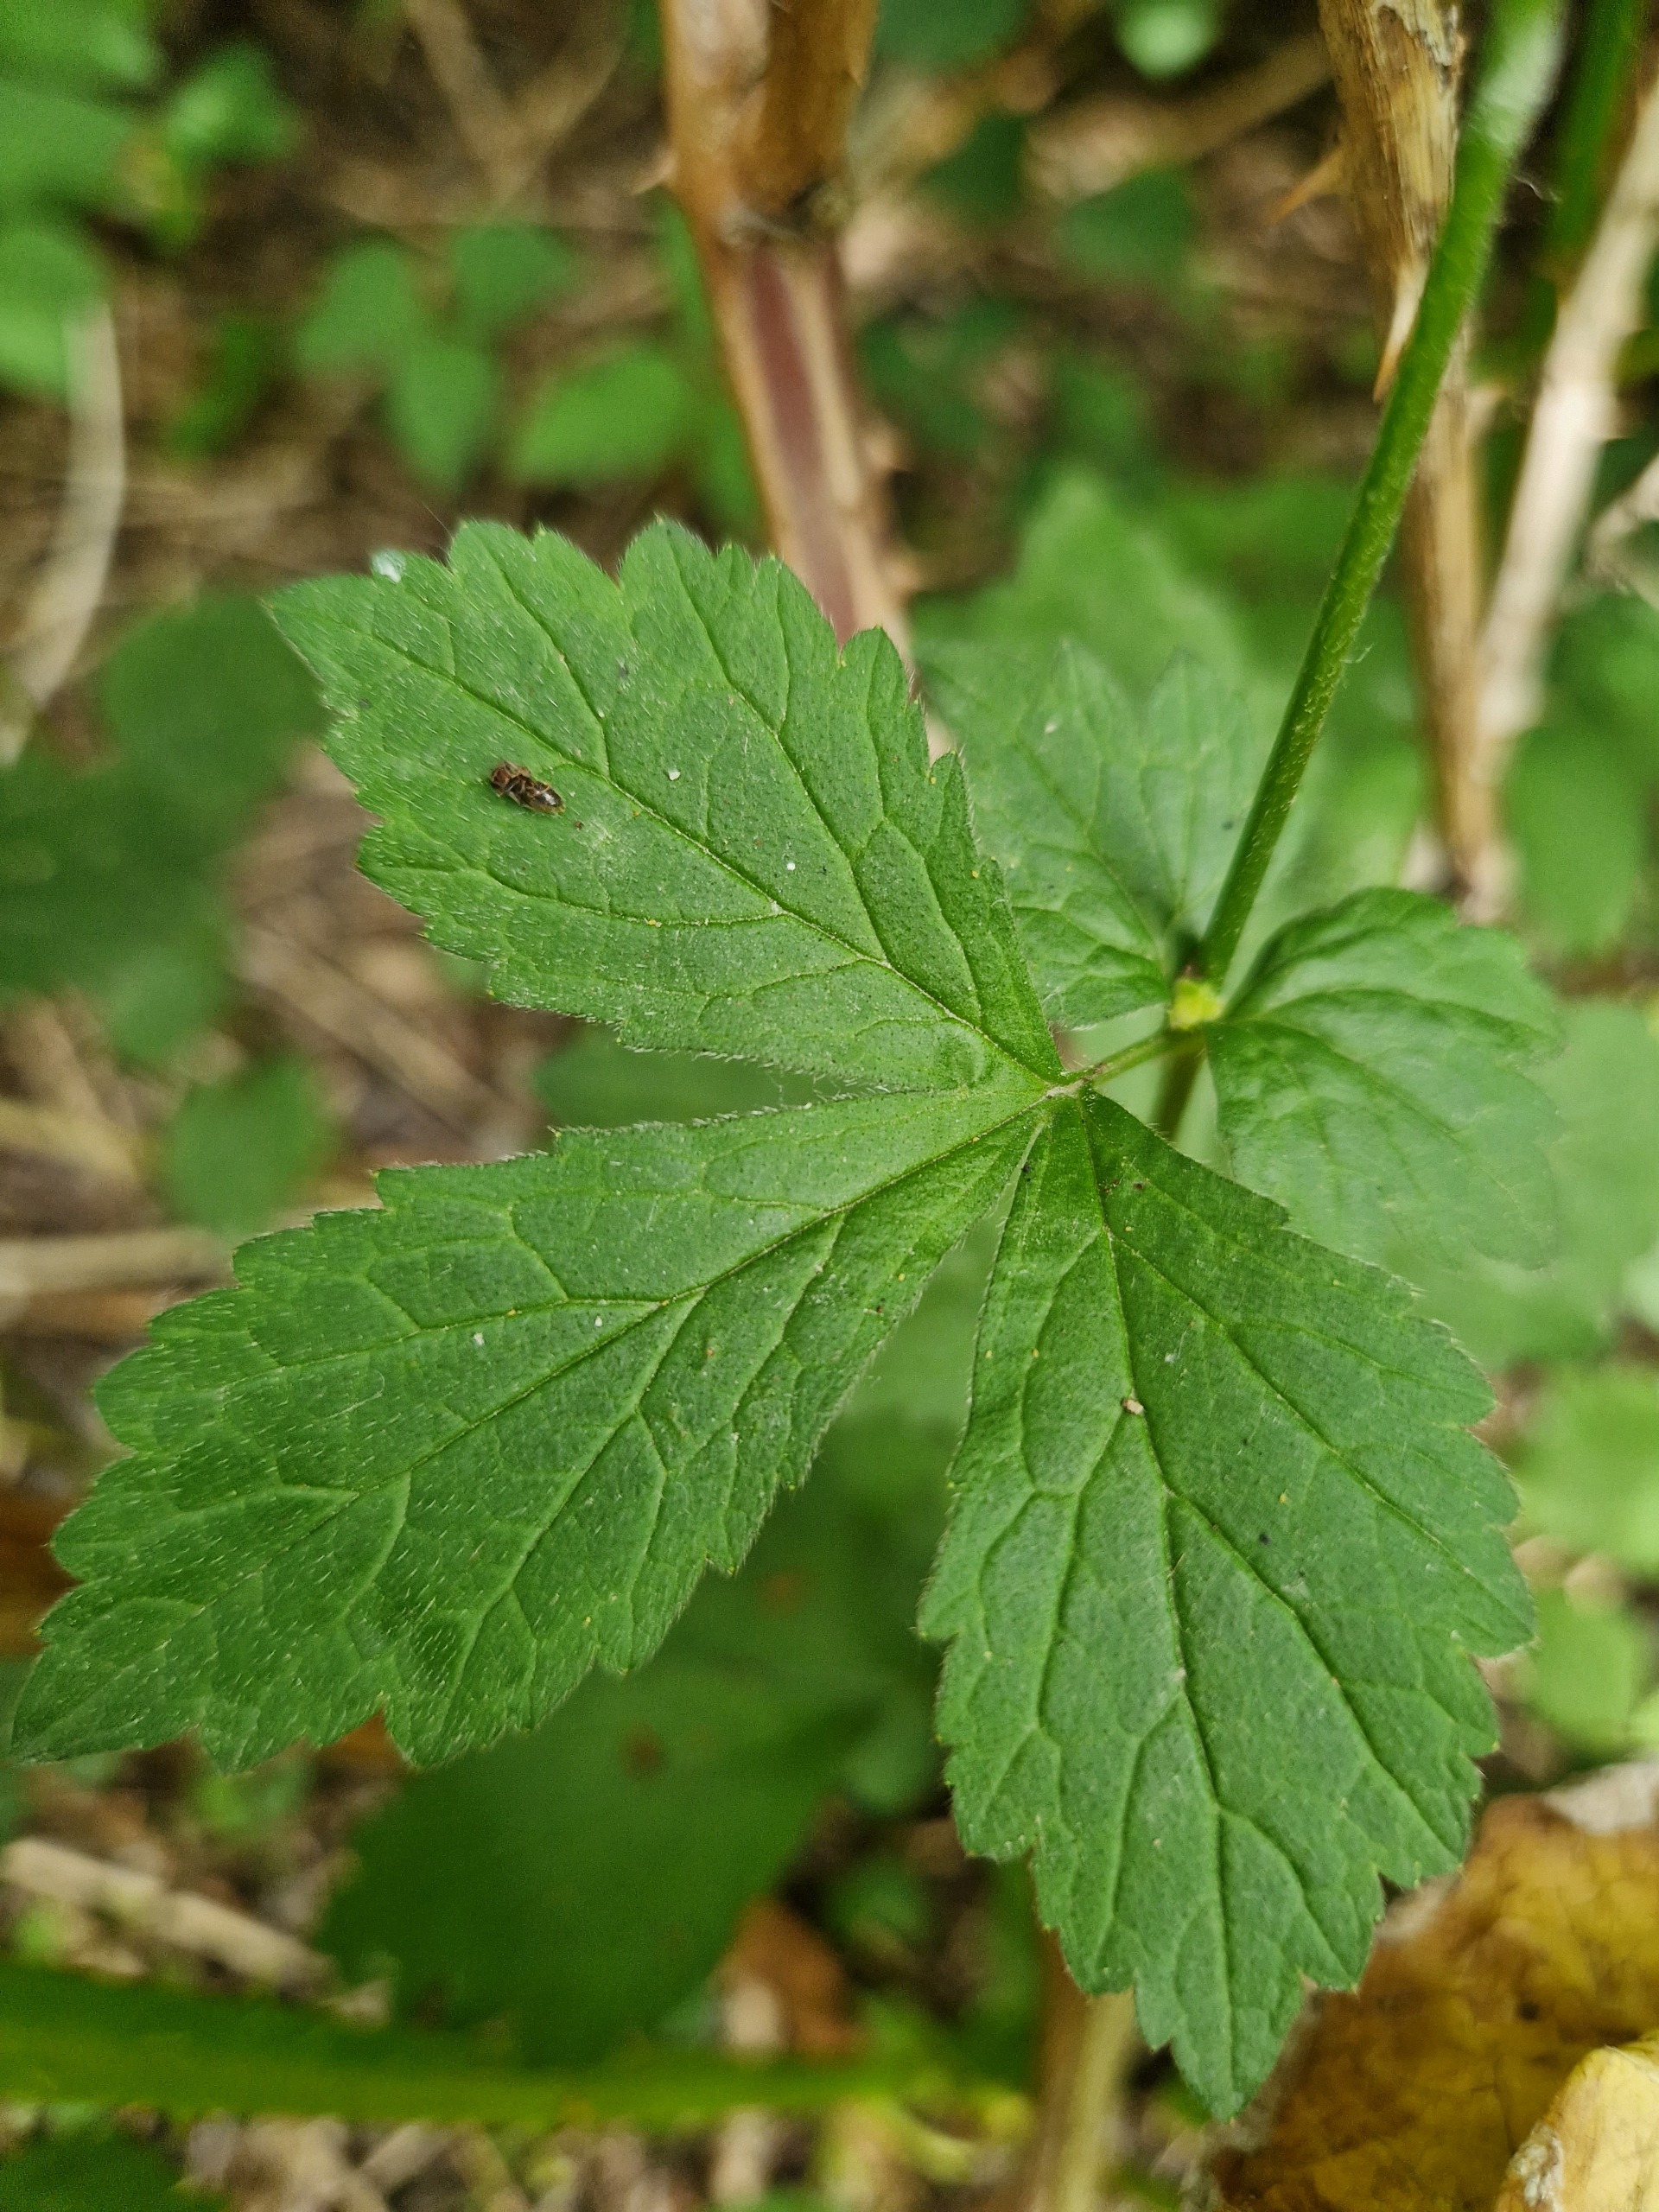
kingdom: Plantae
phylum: Tracheophyta
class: Magnoliopsida
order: Rosales
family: Rosaceae
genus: Geum
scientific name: Geum urbanum
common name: Feber-nellikerod
